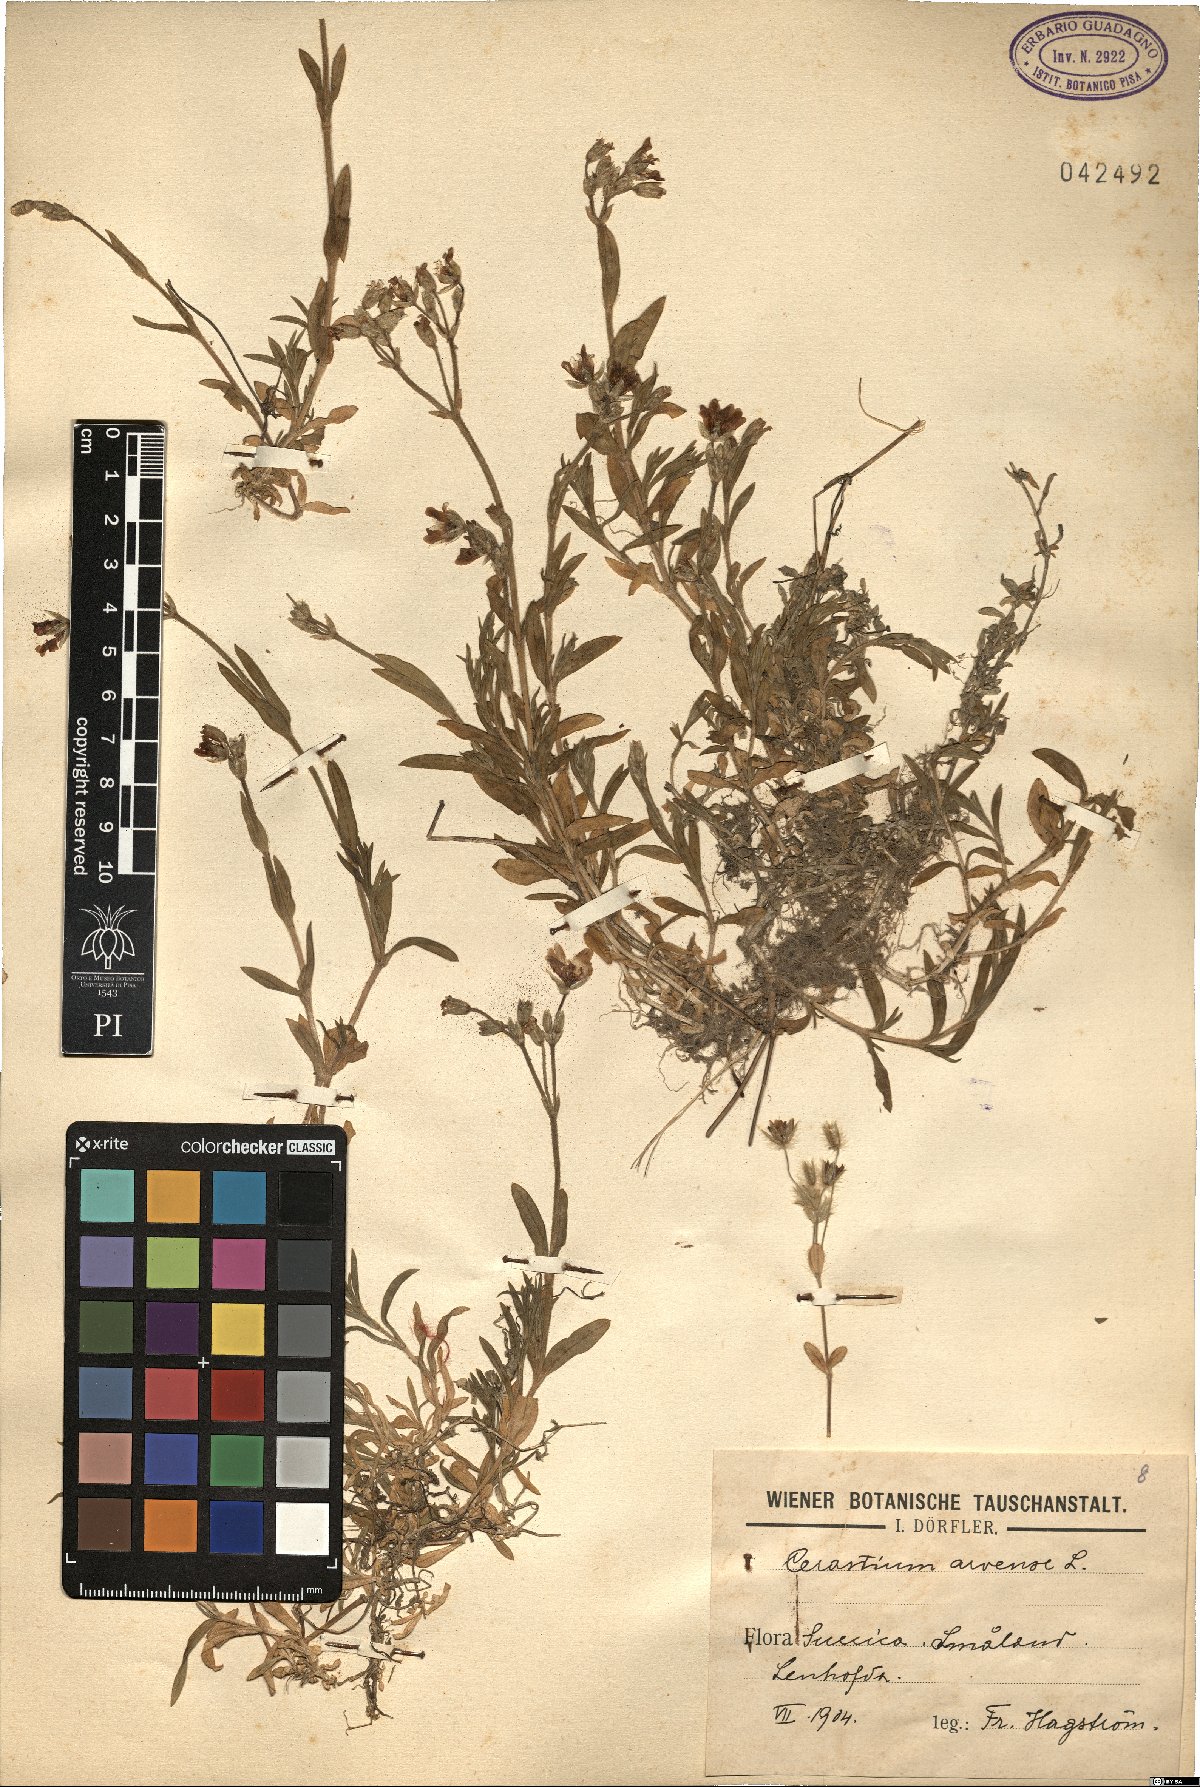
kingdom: Plantae
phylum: Tracheophyta
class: Magnoliopsida
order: Caryophyllales
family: Caryophyllaceae
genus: Cerastium
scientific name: Cerastium arvense
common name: Field mouse-ear
